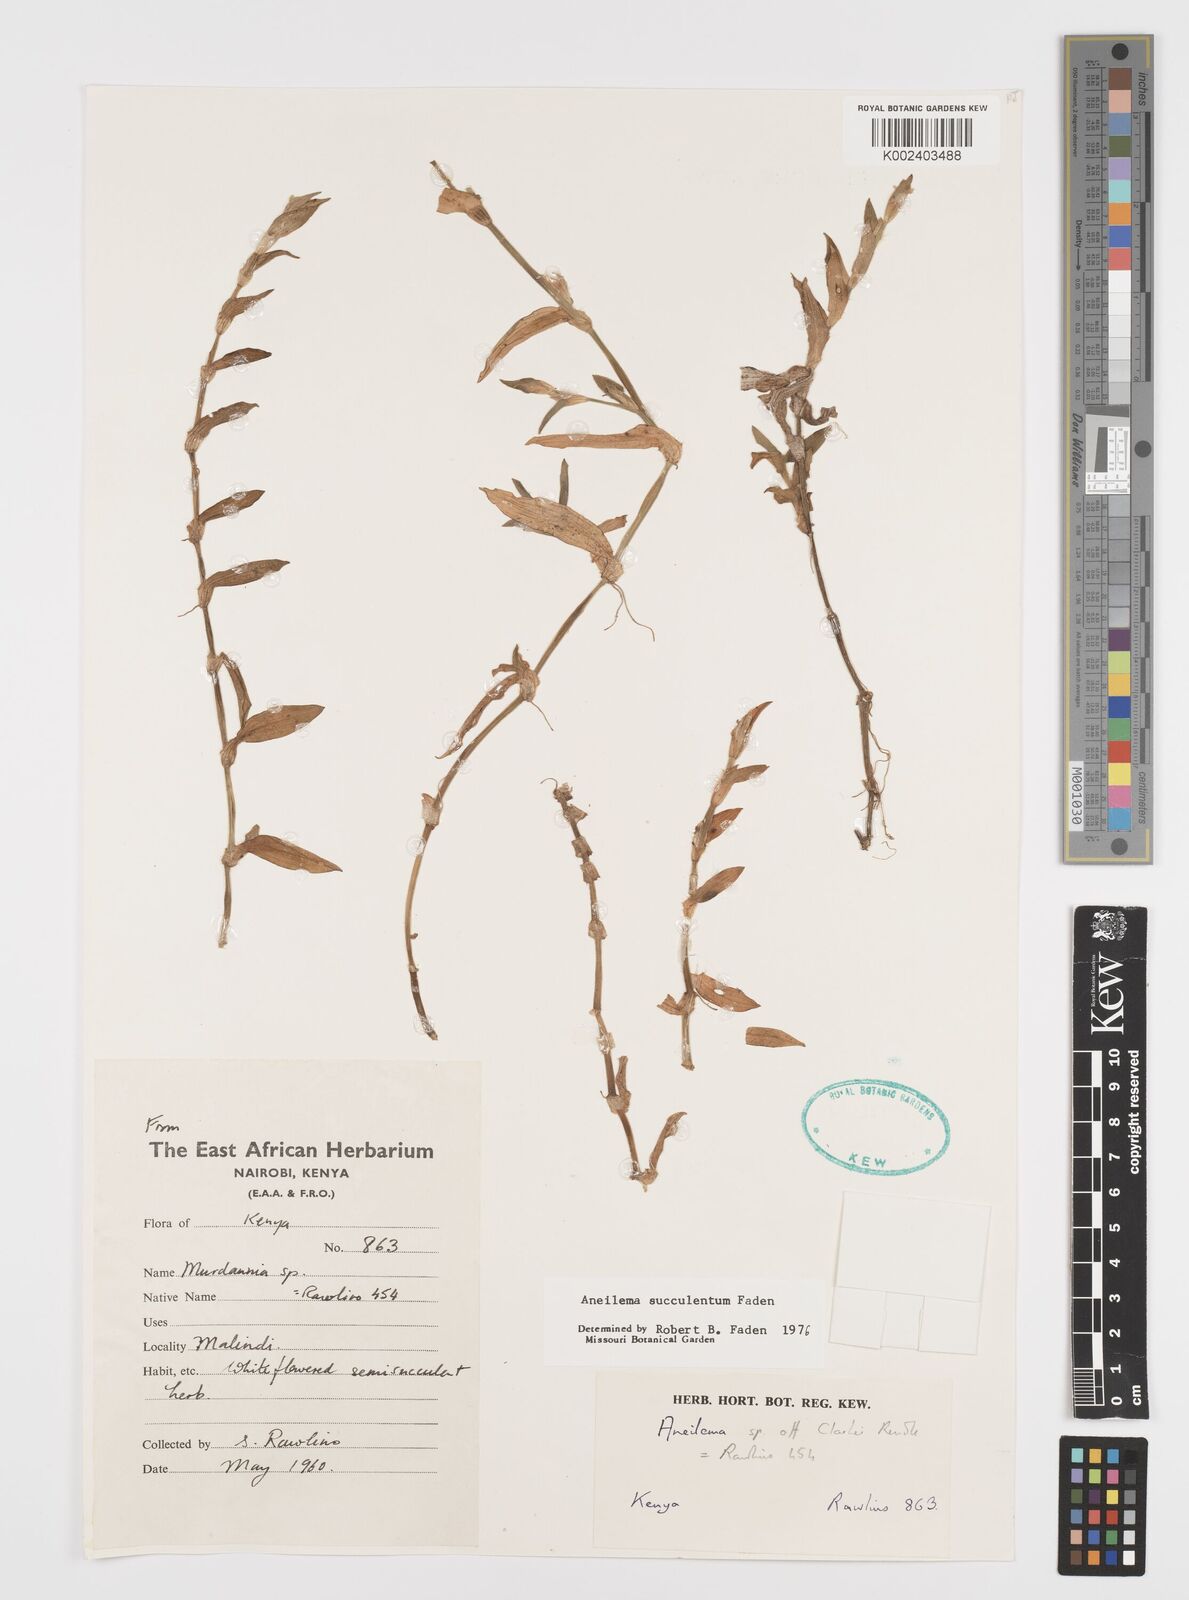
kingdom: Plantae
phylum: Tracheophyta
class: Liliopsida
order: Commelinales
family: Commelinaceae
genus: Aneilema
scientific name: Aneilema succulentum
